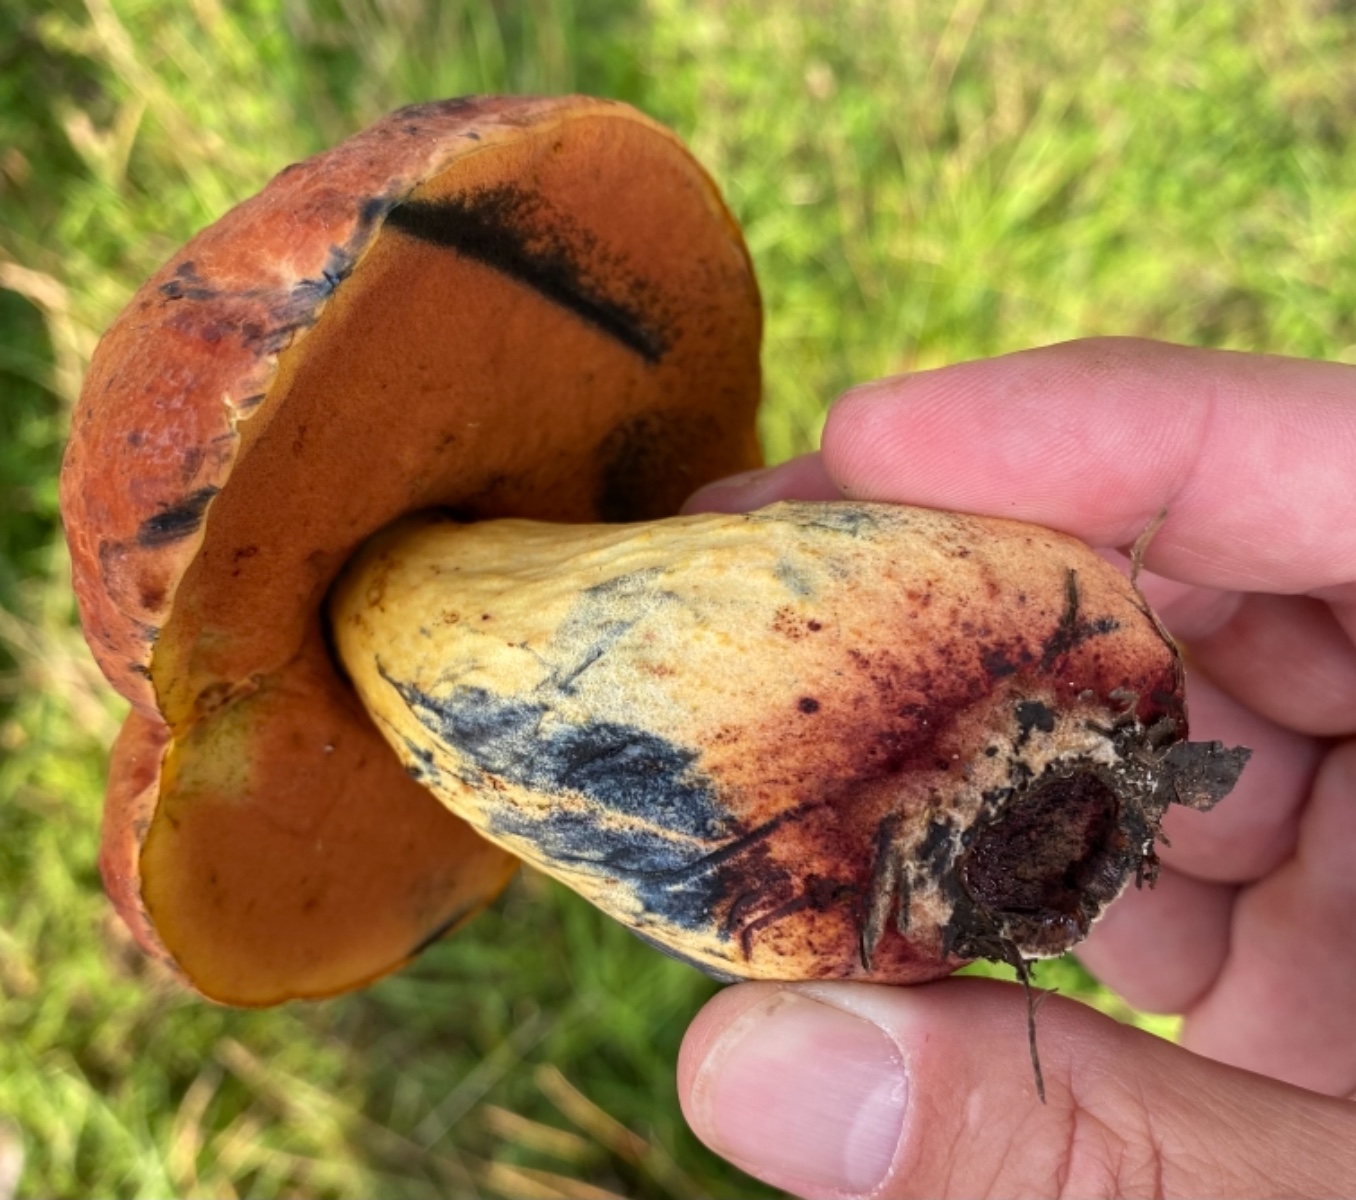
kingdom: Fungi
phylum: Basidiomycota
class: Agaricomycetes
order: Boletales
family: Boletaceae
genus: Suillellus
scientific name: Suillellus queletii
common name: glatstokket indigorørhat
